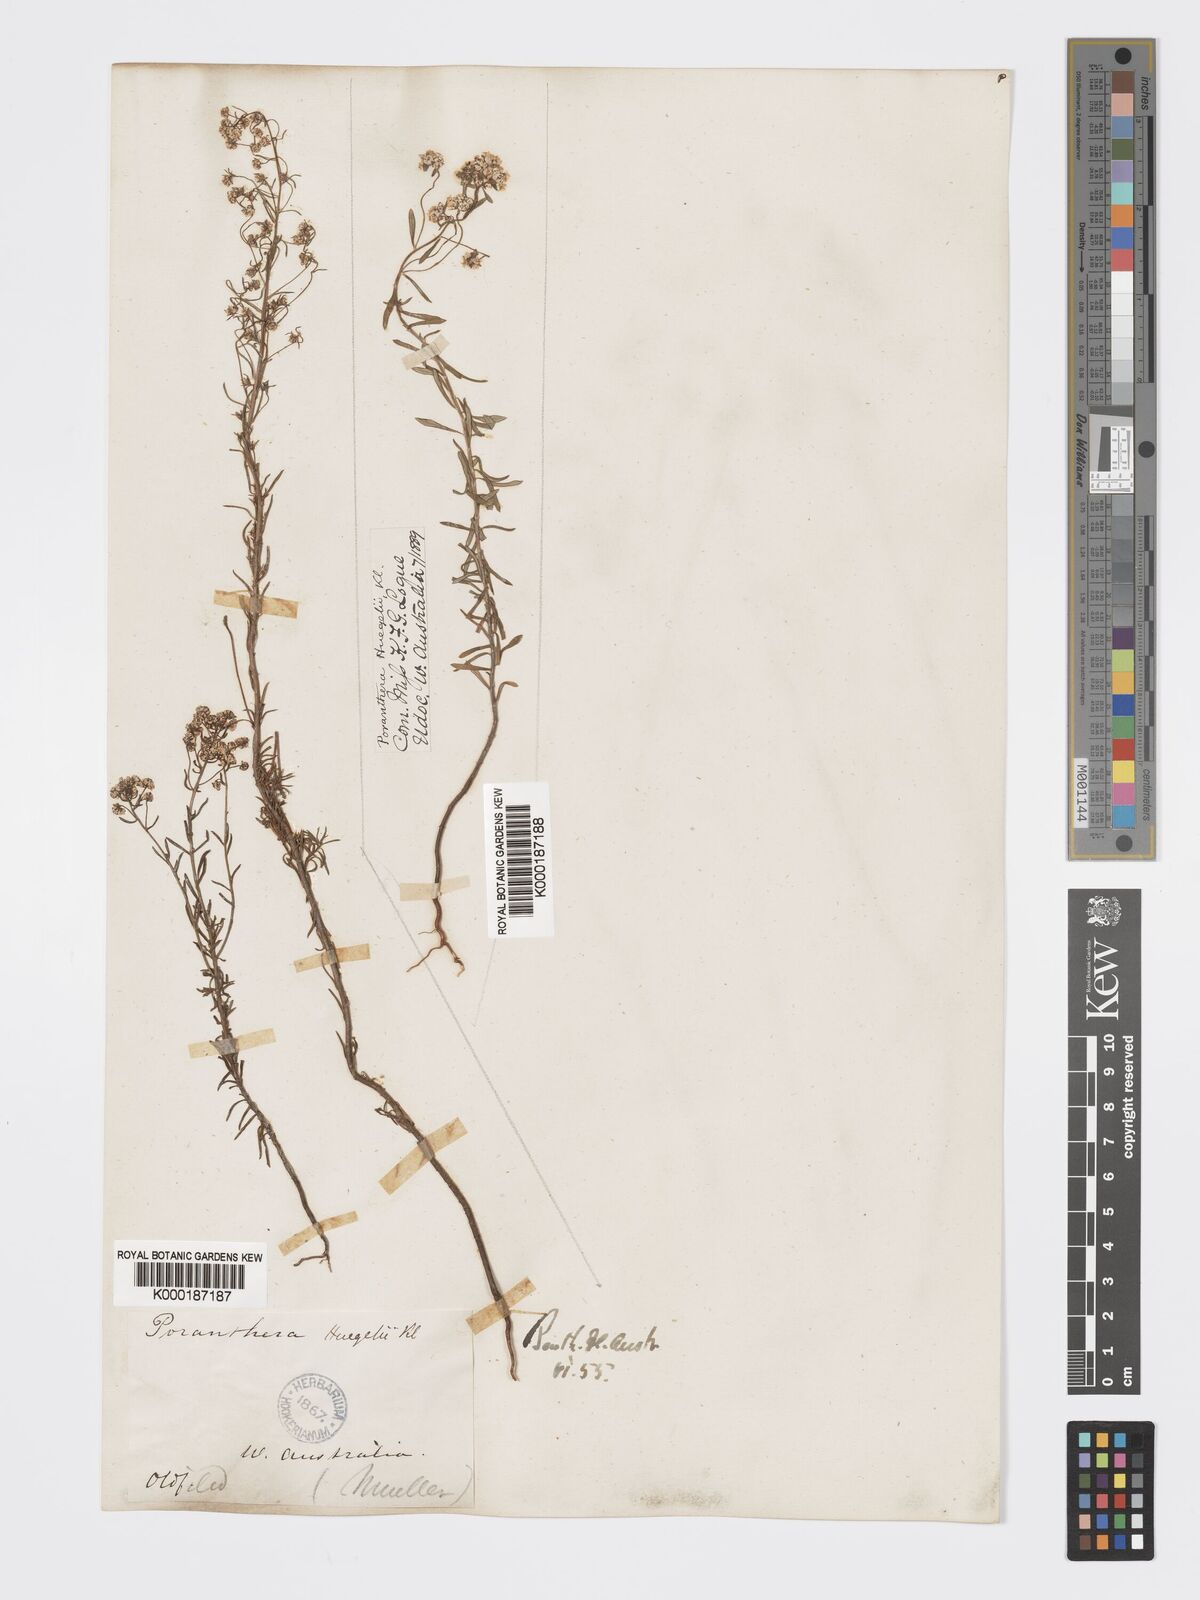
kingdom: Plantae
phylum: Tracheophyta
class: Magnoliopsida
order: Malpighiales
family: Phyllanthaceae
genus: Poranthera
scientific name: Poranthera huegelii
